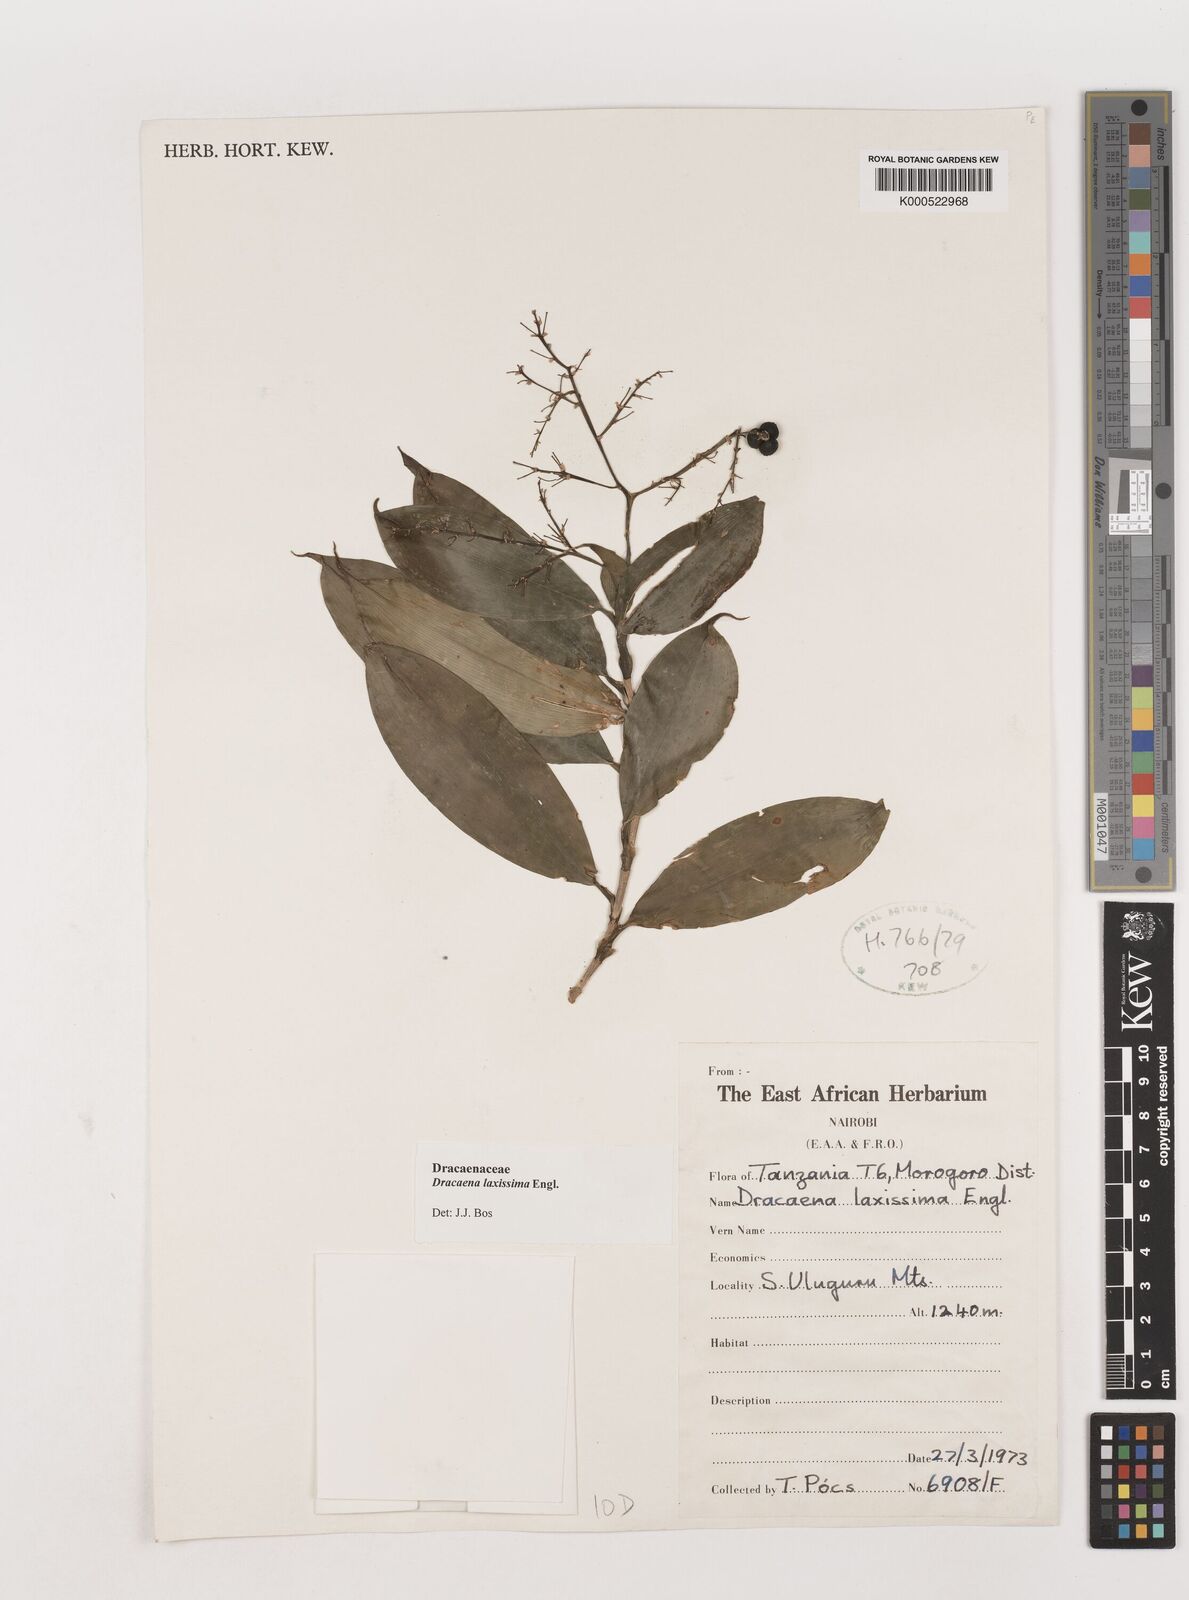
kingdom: Plantae
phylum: Tracheophyta
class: Liliopsida
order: Asparagales
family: Asparagaceae
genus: Dracaena
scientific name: Dracaena laxissima
